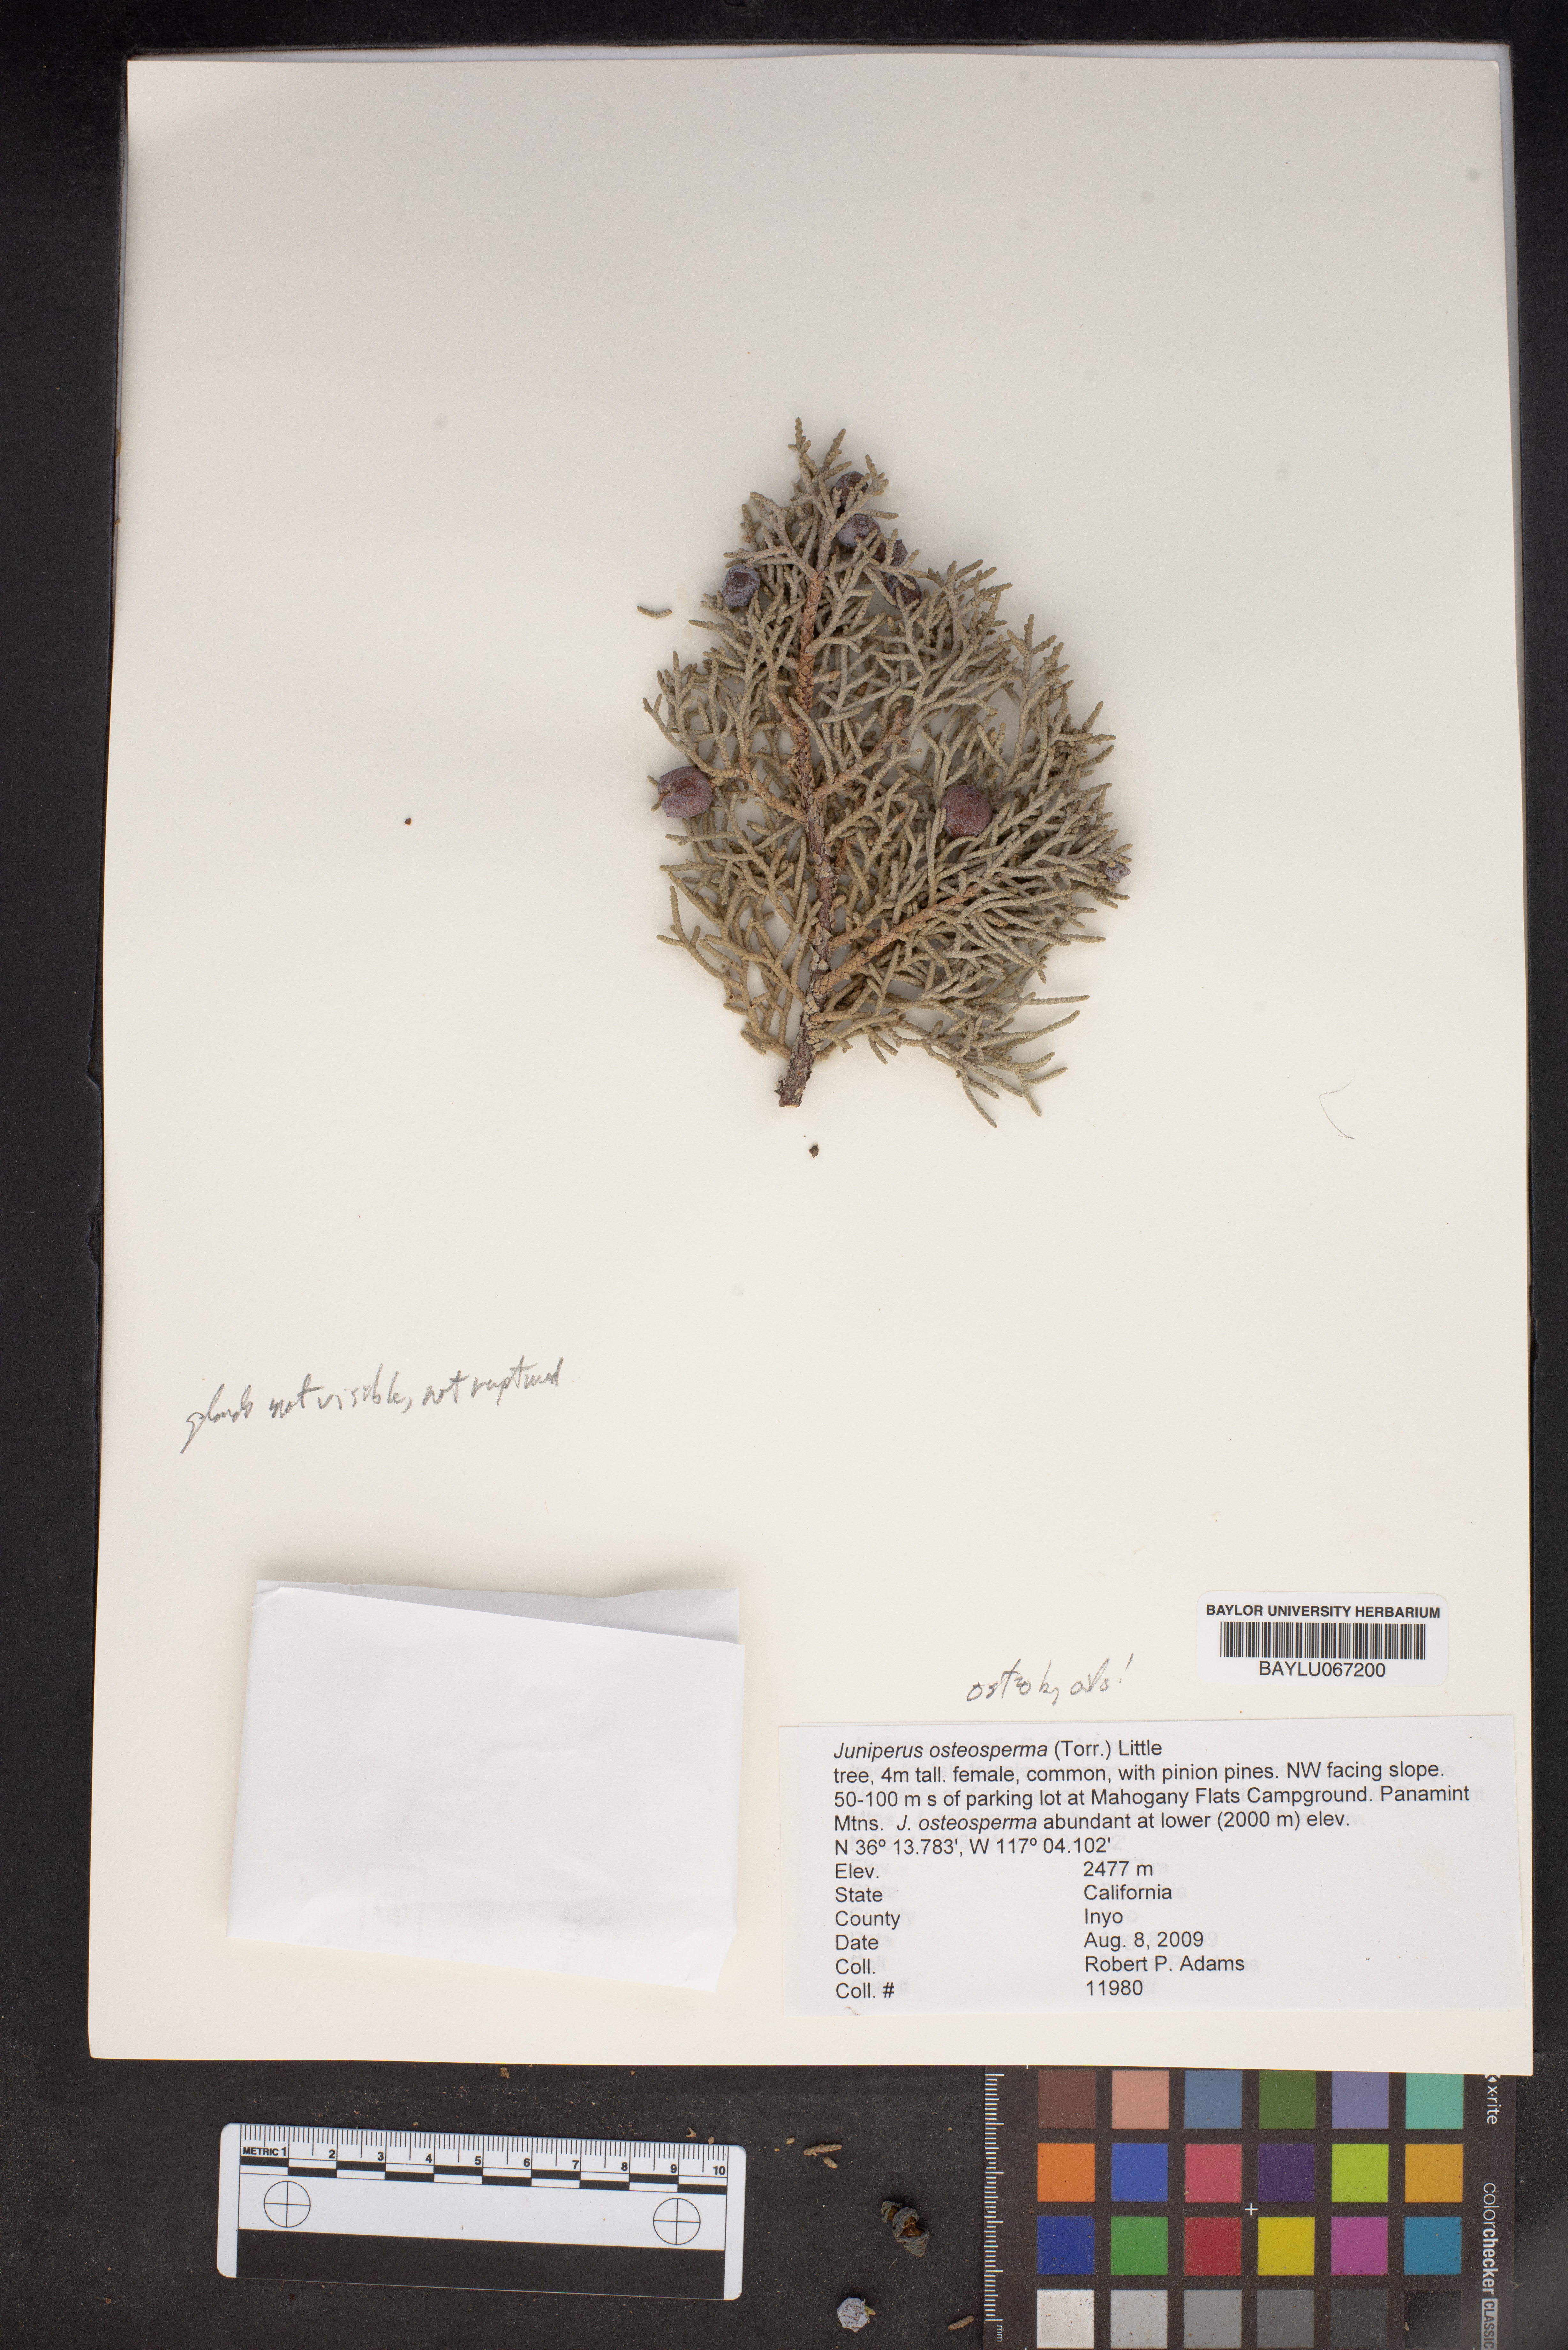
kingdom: Plantae
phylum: Tracheophyta
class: Pinopsida
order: Pinales
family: Cupressaceae
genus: Juniperus
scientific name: Juniperus osteosperma
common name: Utah juniper
